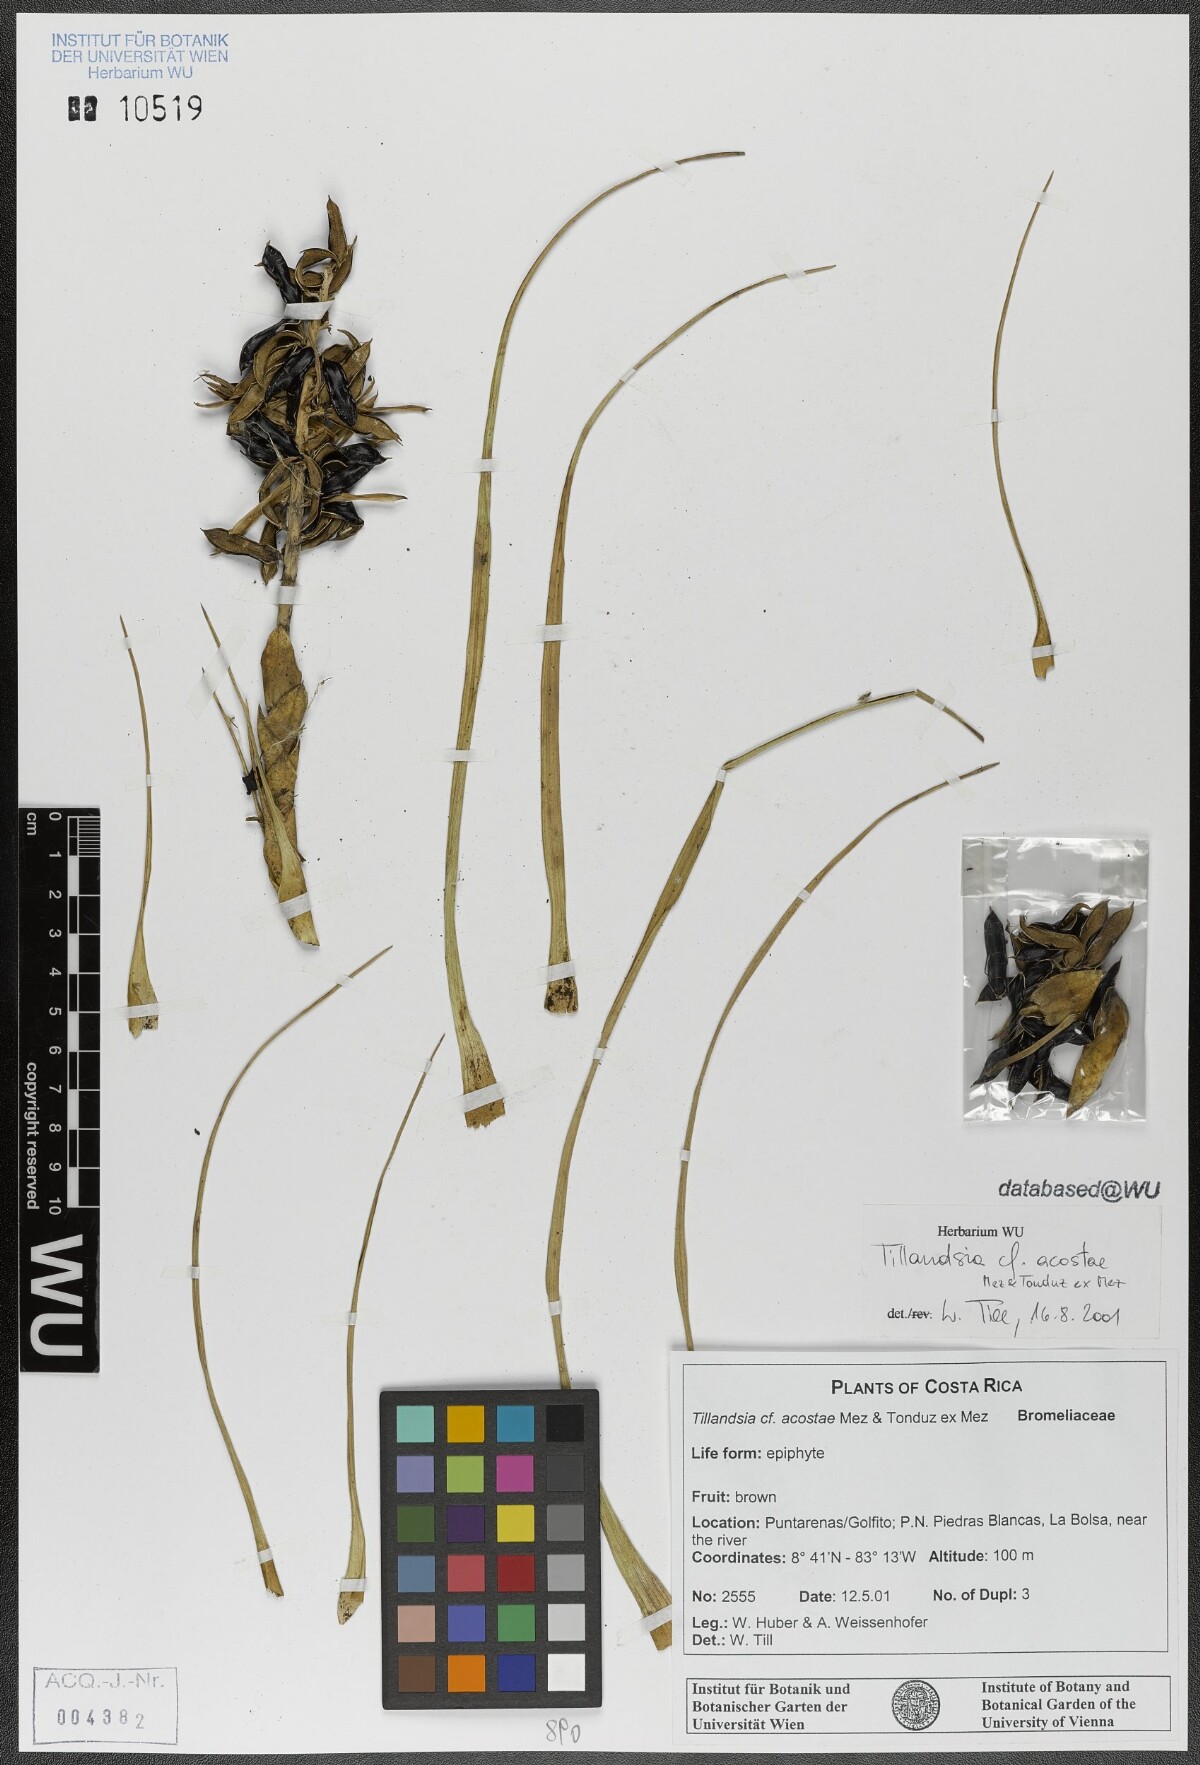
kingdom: Plantae
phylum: Tracheophyta
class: Liliopsida
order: Poales
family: Bromeliaceae
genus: Tillandsia
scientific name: Tillandsia rhomboidea
